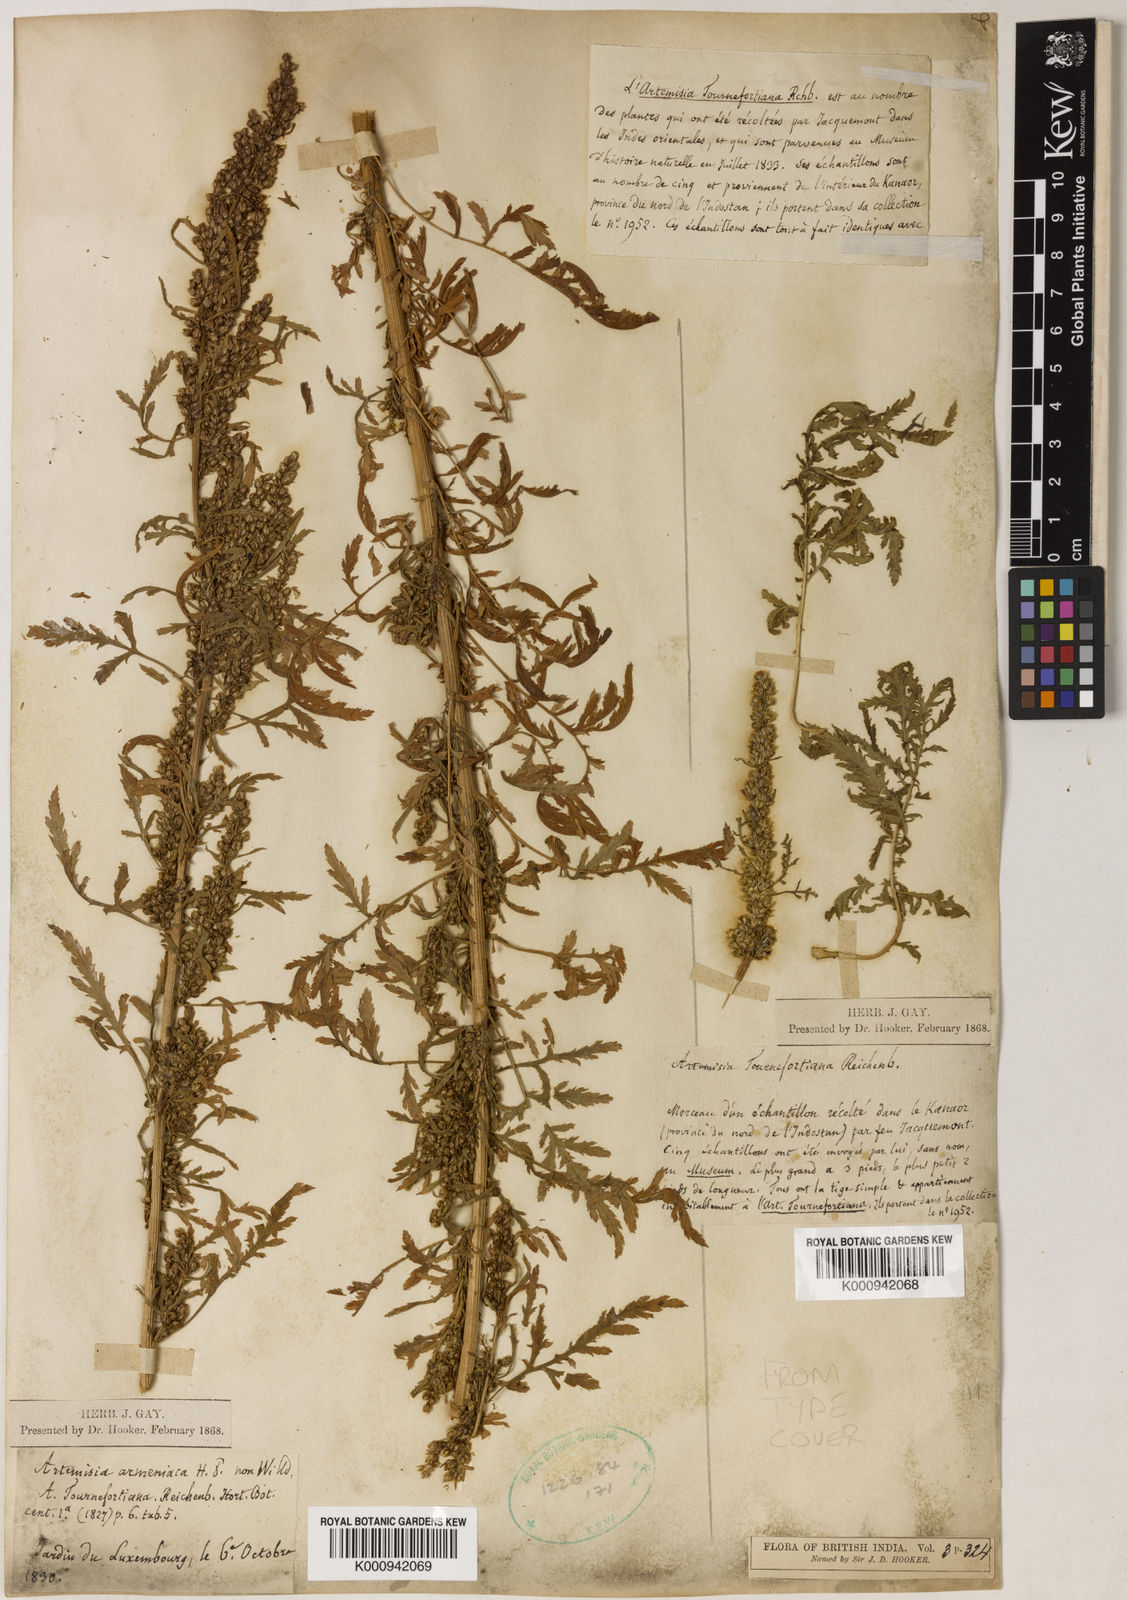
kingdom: Plantae
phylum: Tracheophyta
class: Magnoliopsida
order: Asterales
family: Asteraceae
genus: Artemisia
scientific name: Artemisia tournefortiana
